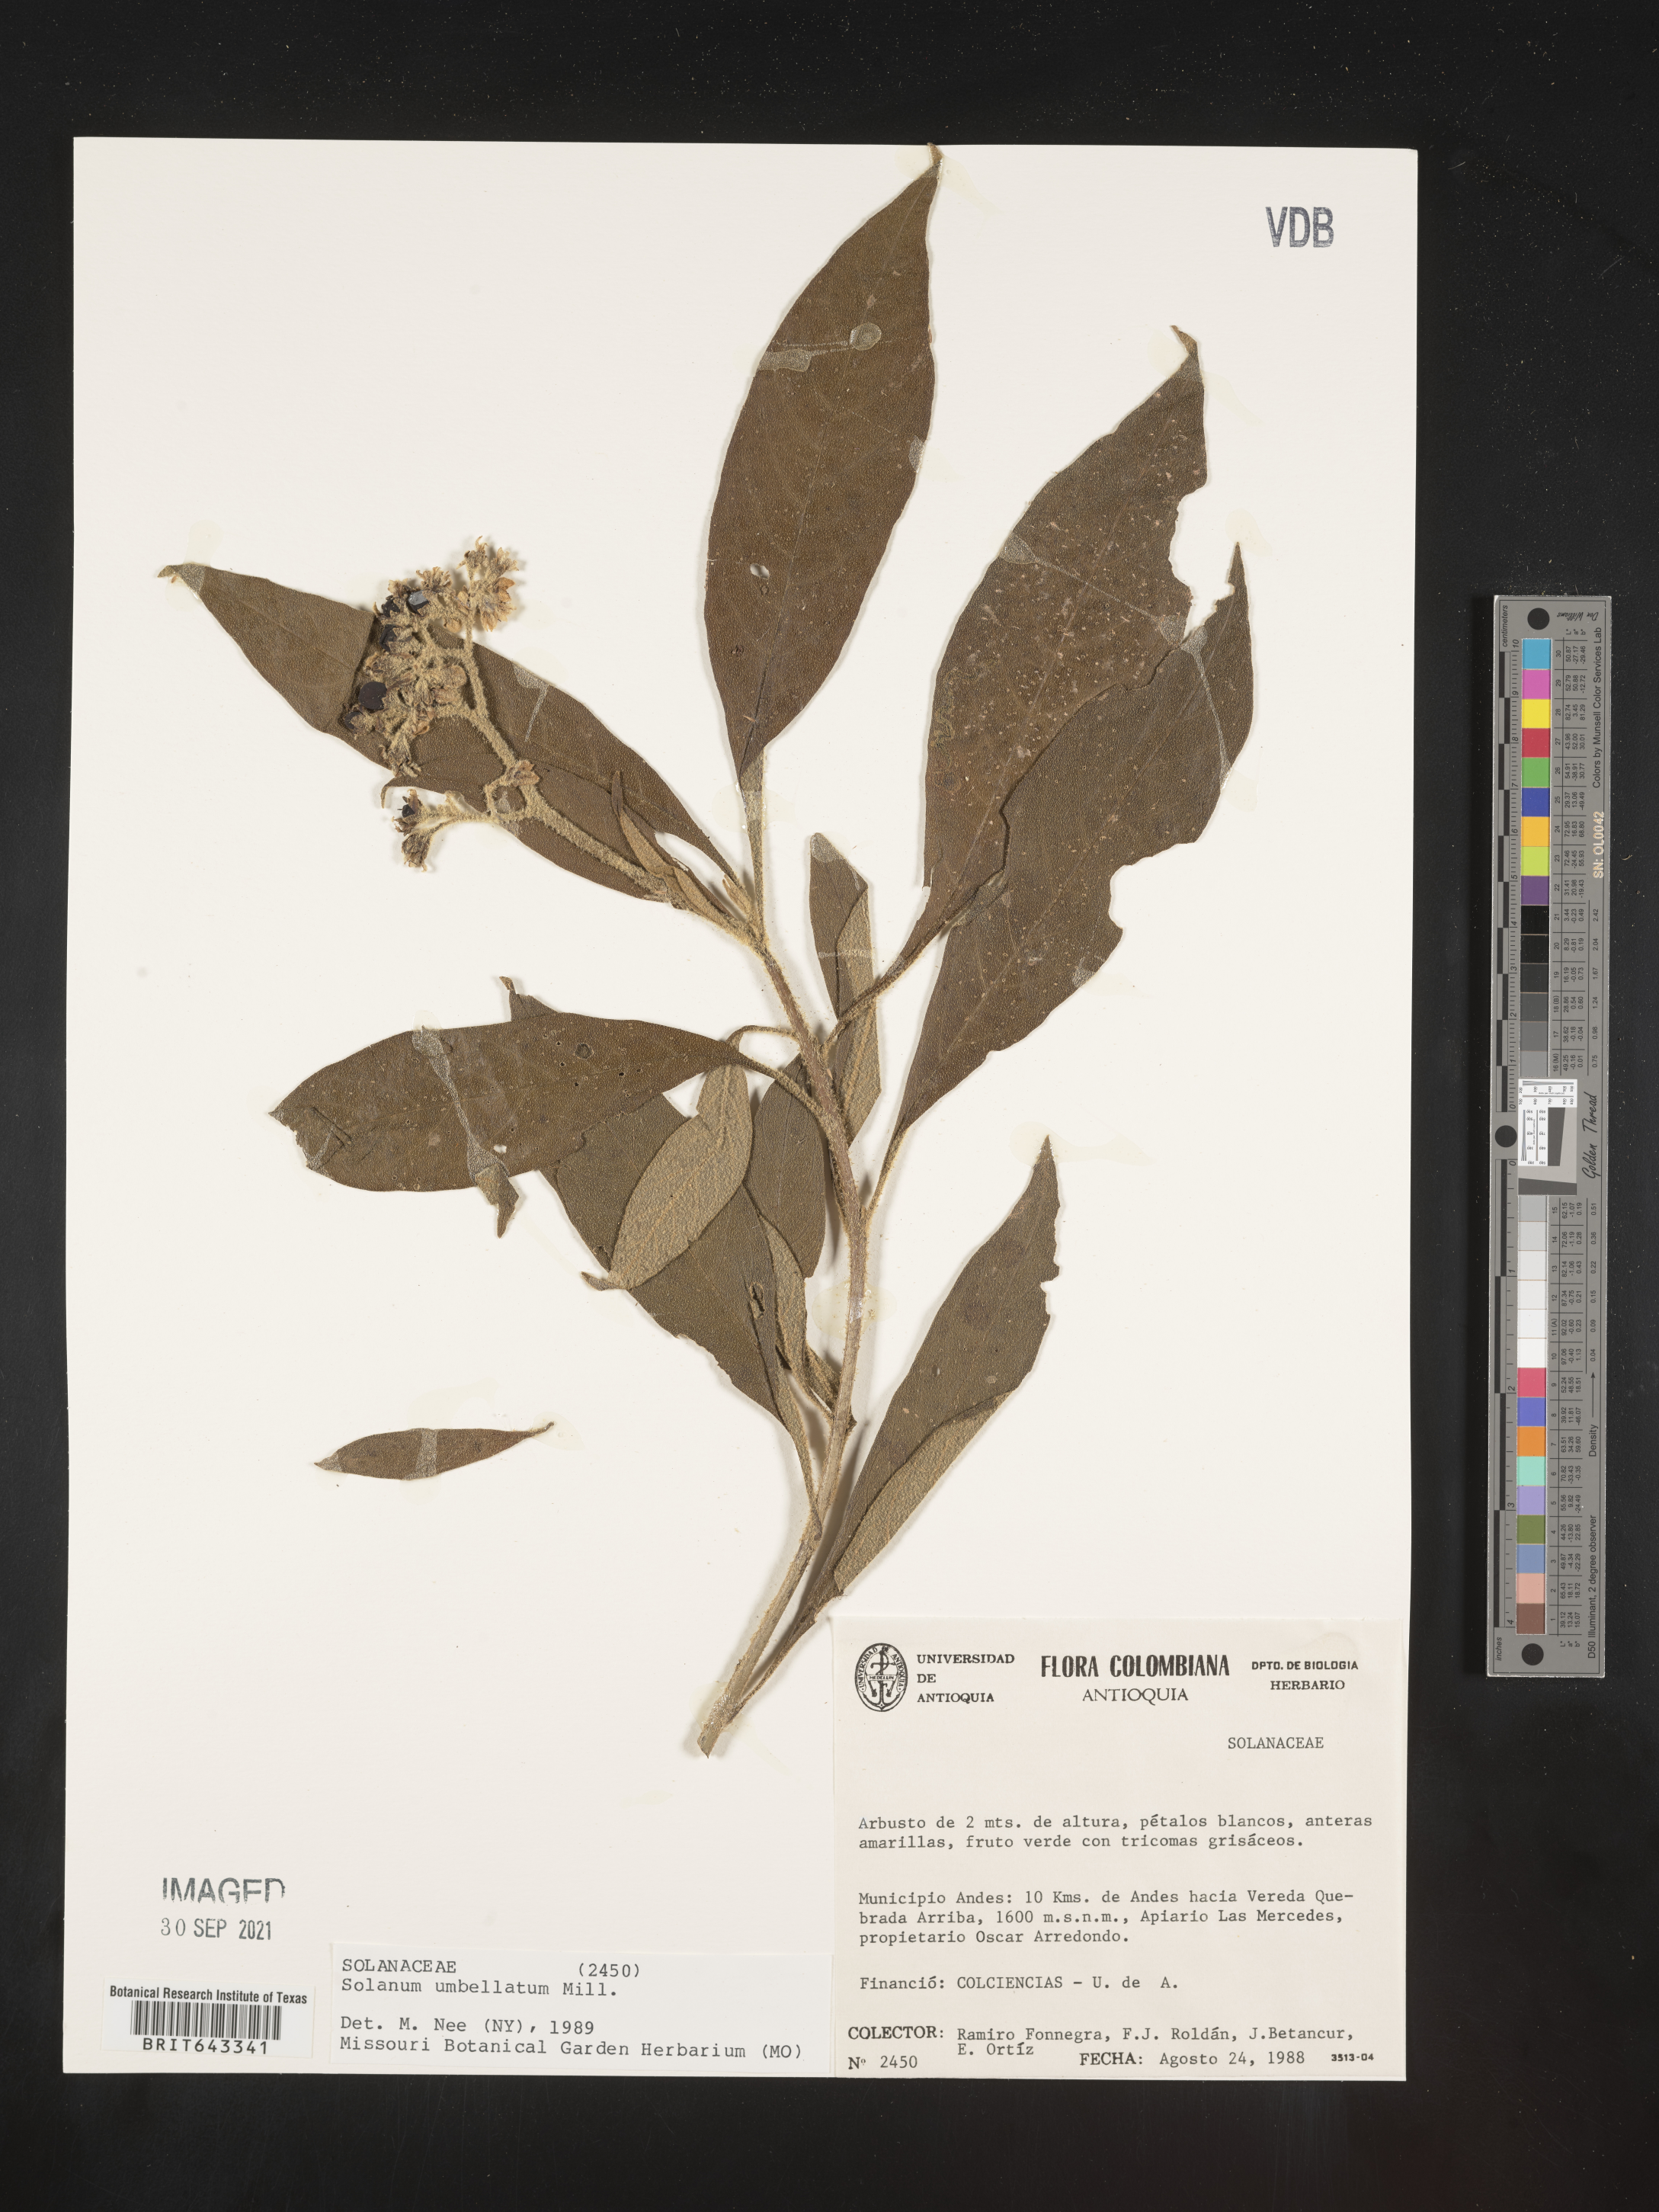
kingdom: Plantae
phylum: Tracheophyta
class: Magnoliopsida
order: Solanales
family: Solanaceae
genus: Solanum
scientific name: Solanum
